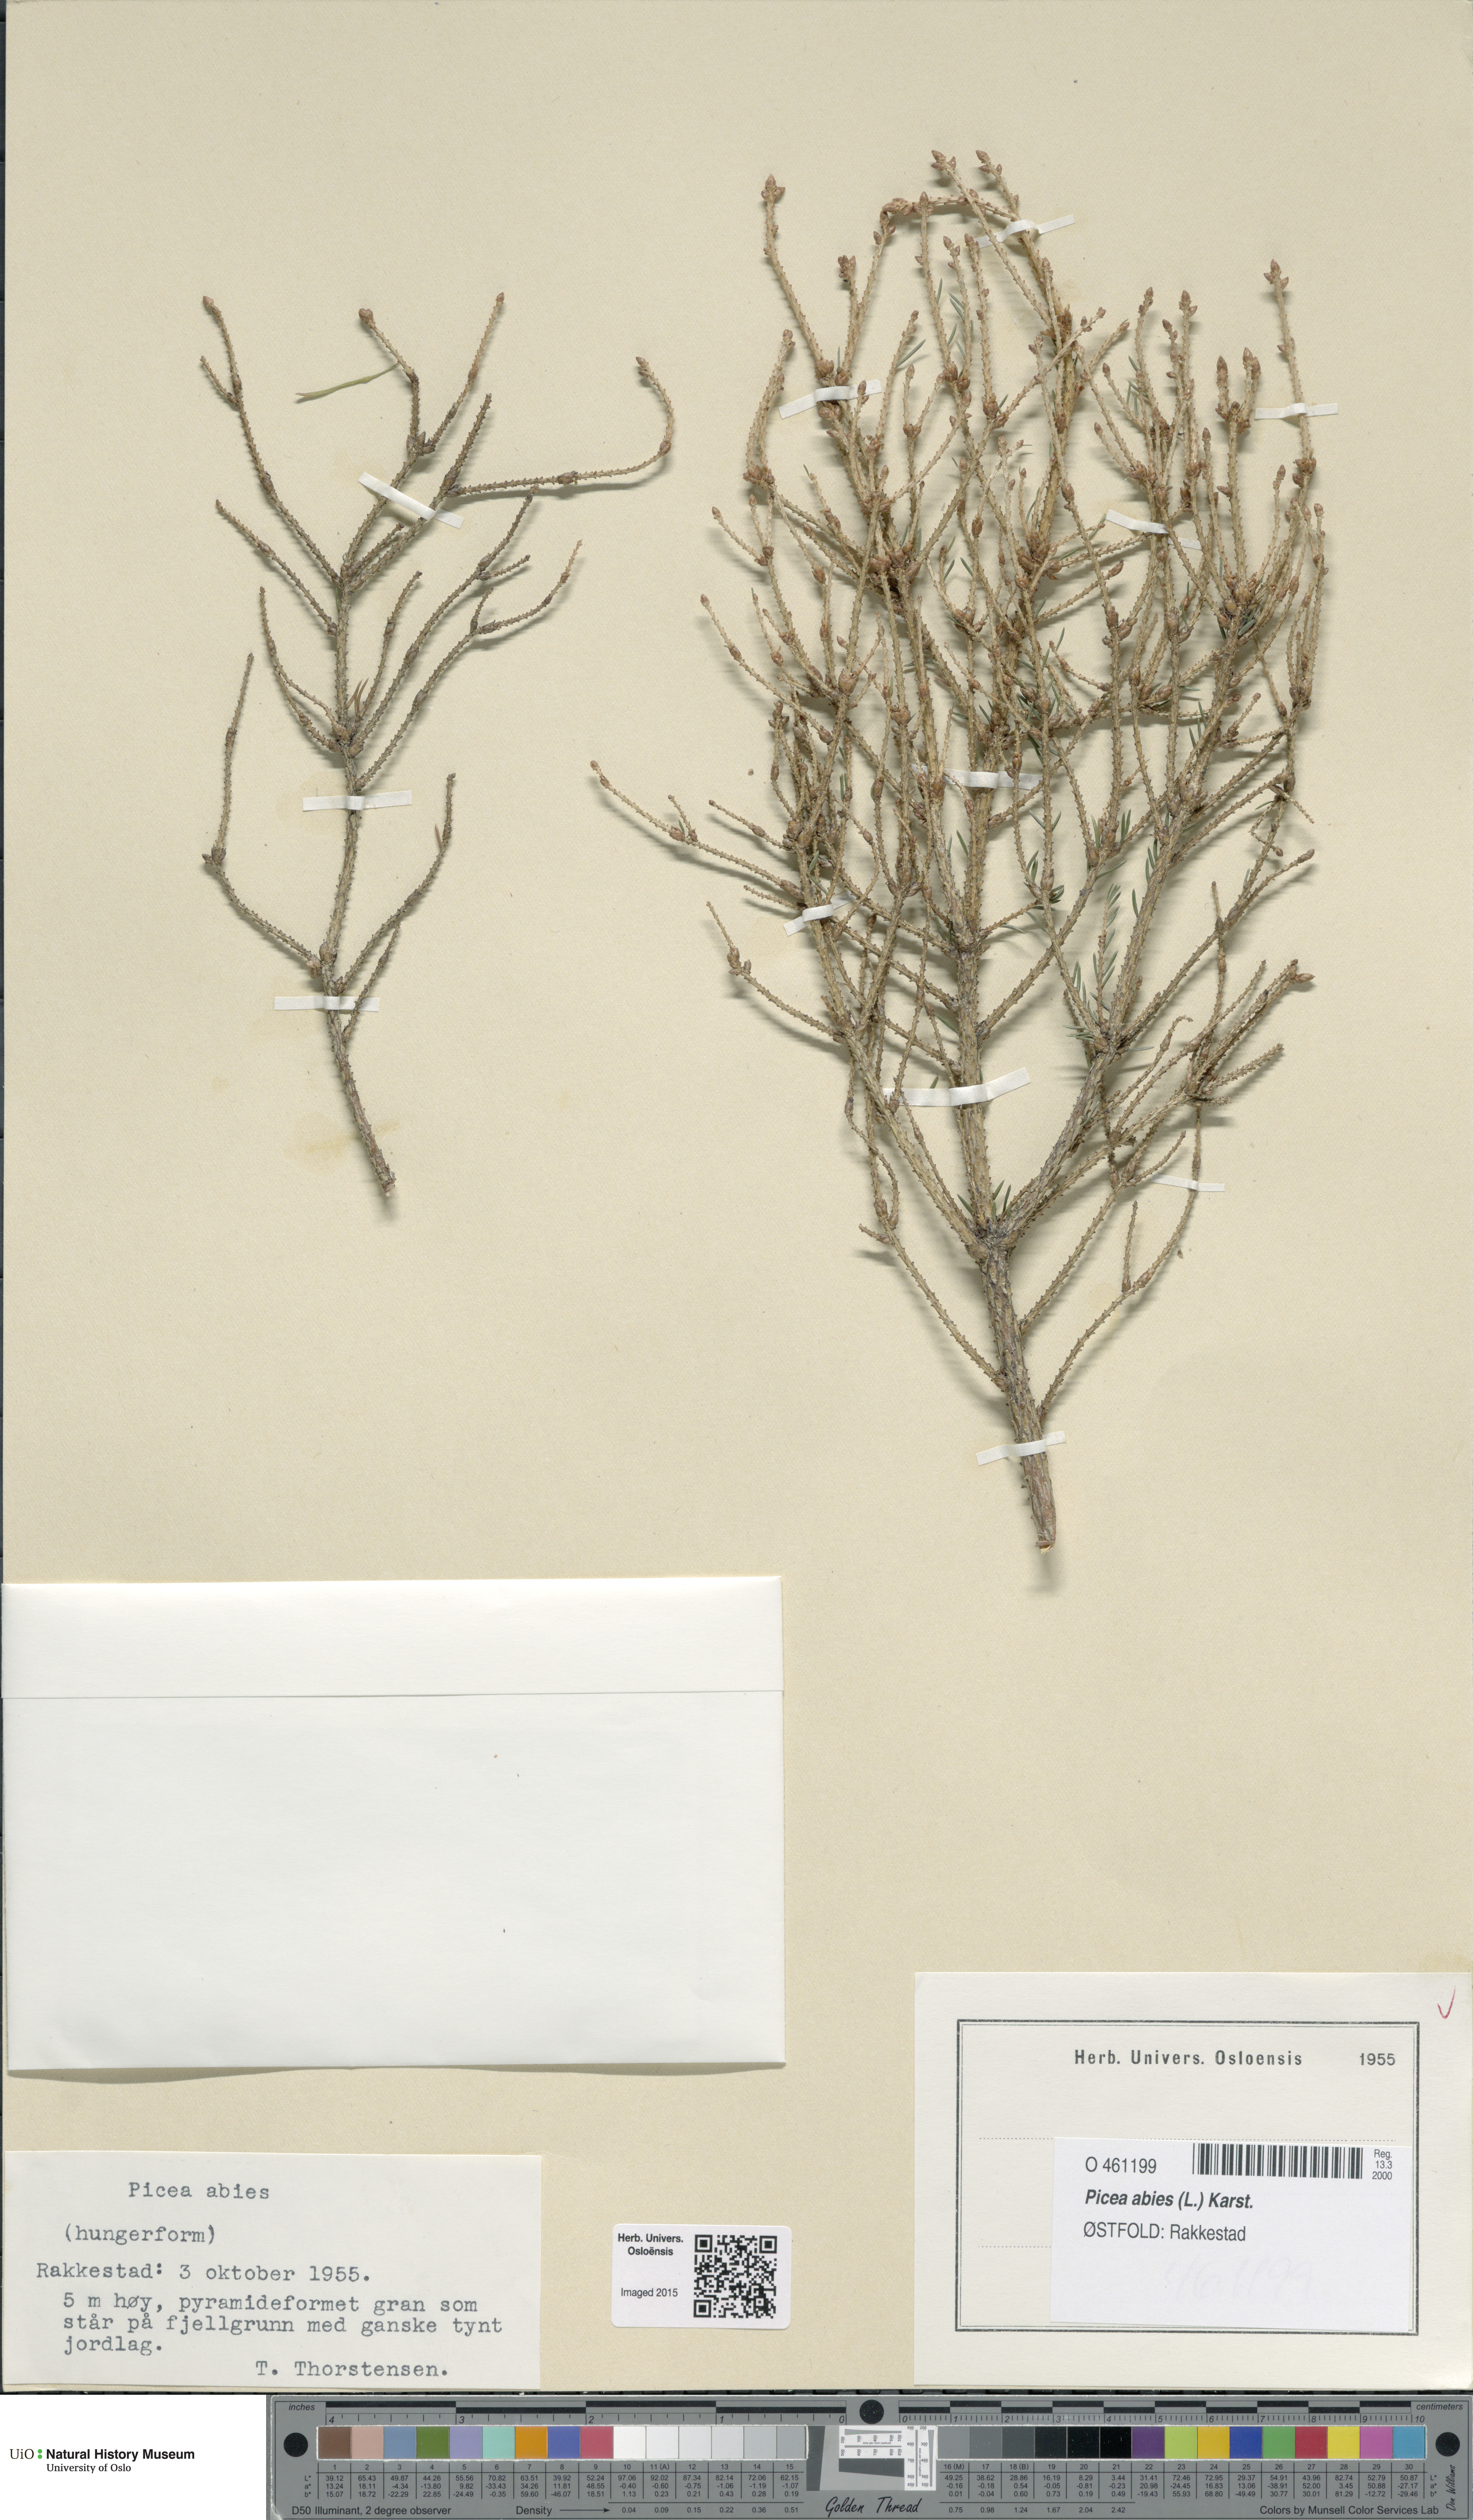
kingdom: Plantae
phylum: Tracheophyta
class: Pinopsida
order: Pinales
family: Pinaceae
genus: Picea
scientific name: Picea abies
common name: Norway spruce
